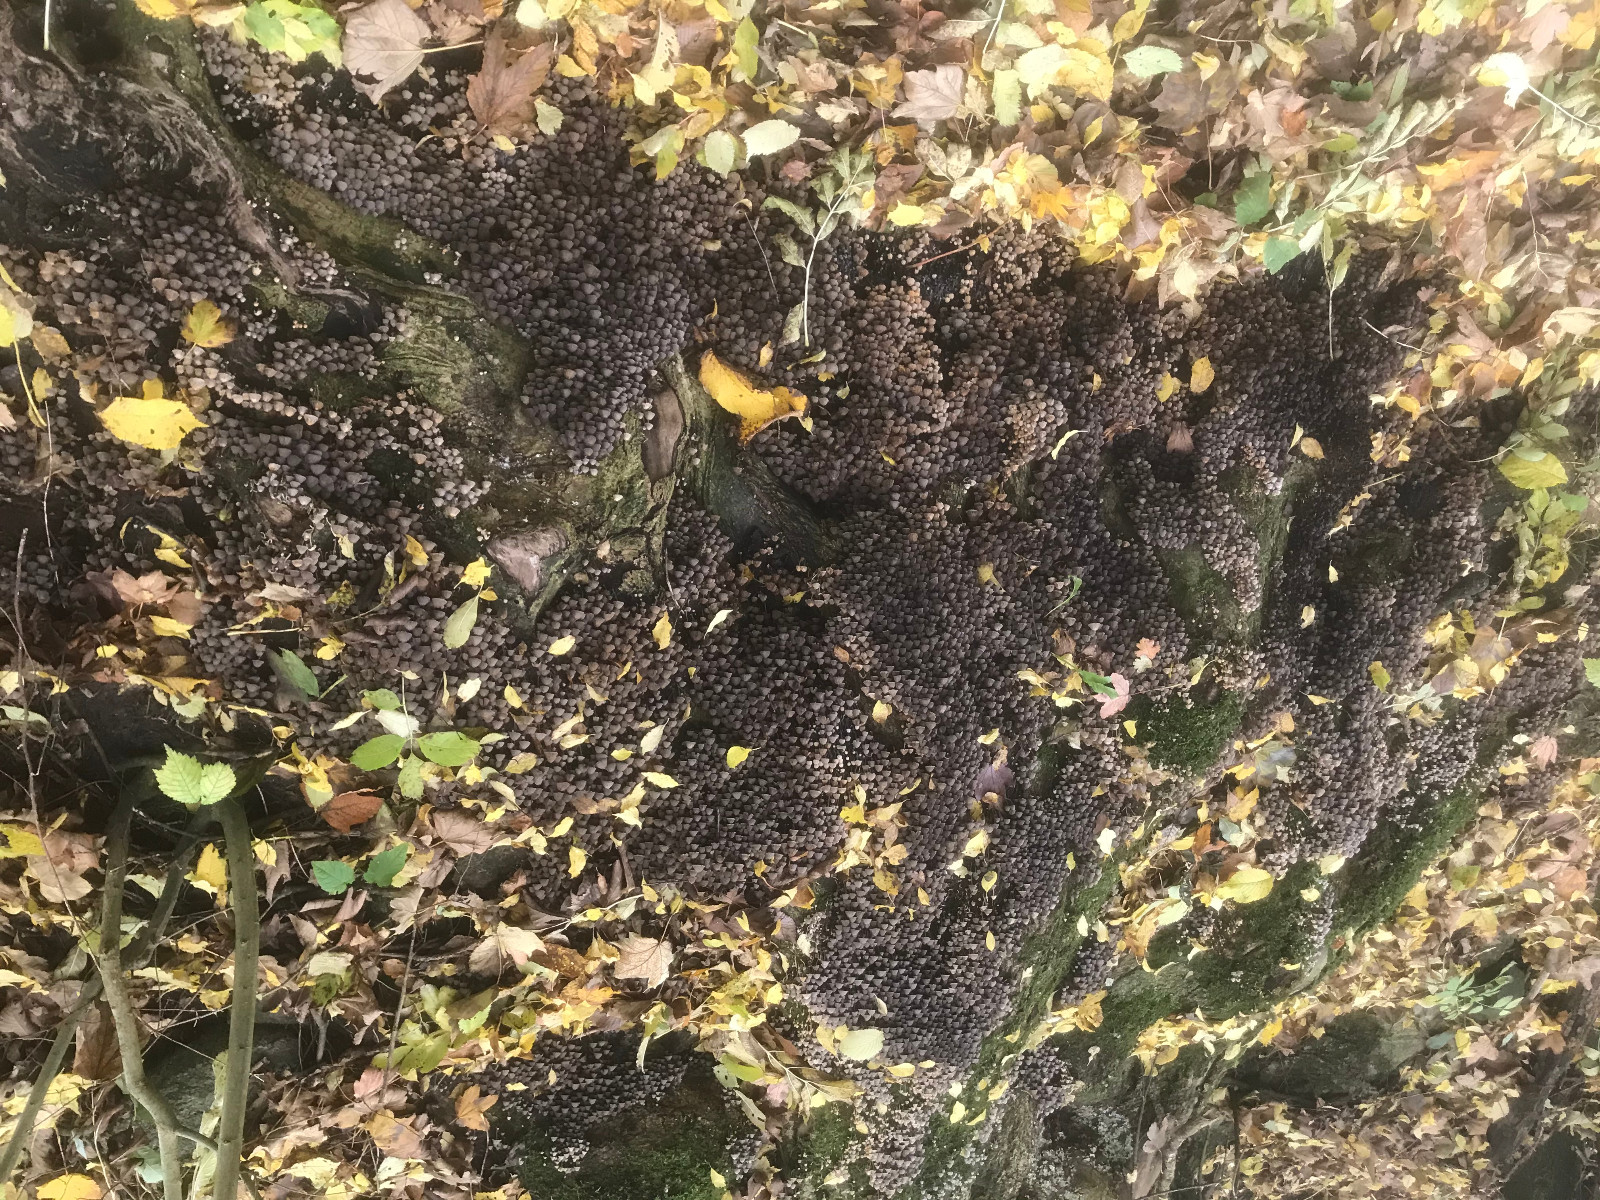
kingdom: Fungi
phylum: Basidiomycota
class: Agaricomycetes
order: Agaricales
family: Psathyrellaceae
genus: Coprinellus
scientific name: Coprinellus disseminatus
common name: bredsået blækhat
